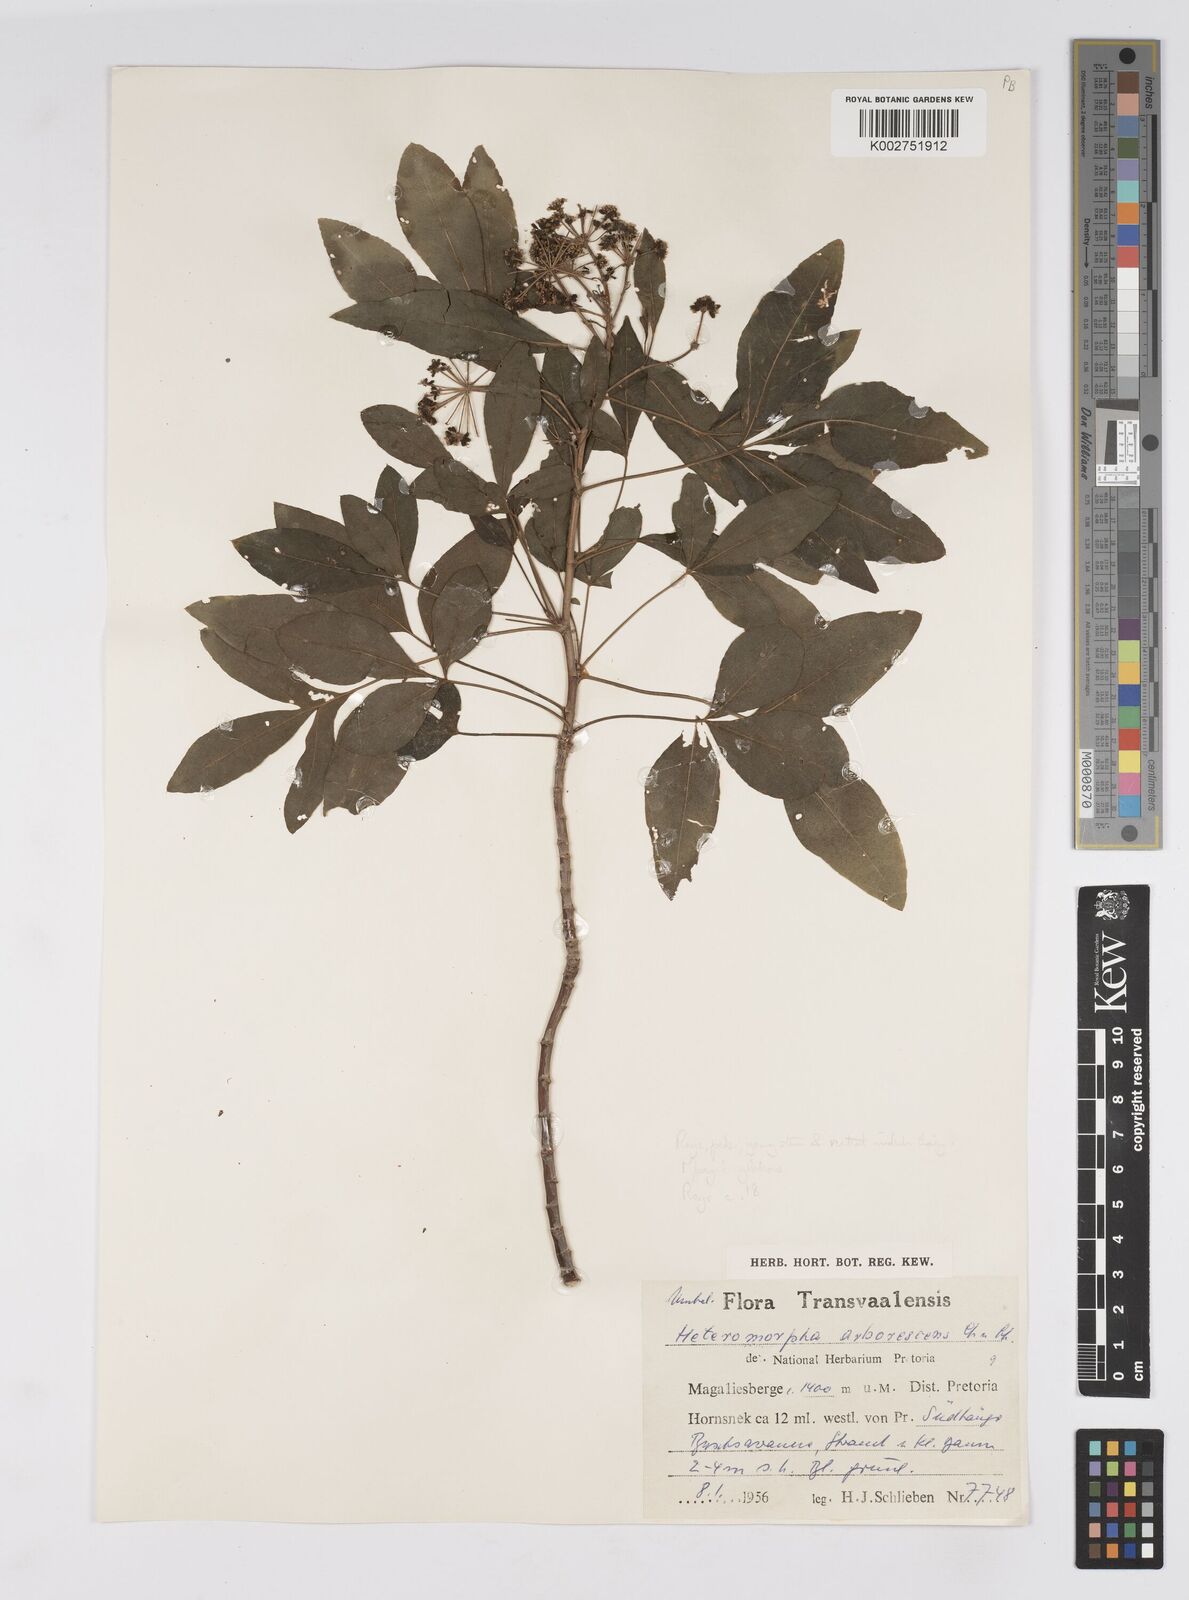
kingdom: Plantae
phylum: Tracheophyta
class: Magnoliopsida
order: Apiales
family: Apiaceae
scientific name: Apiaceae
